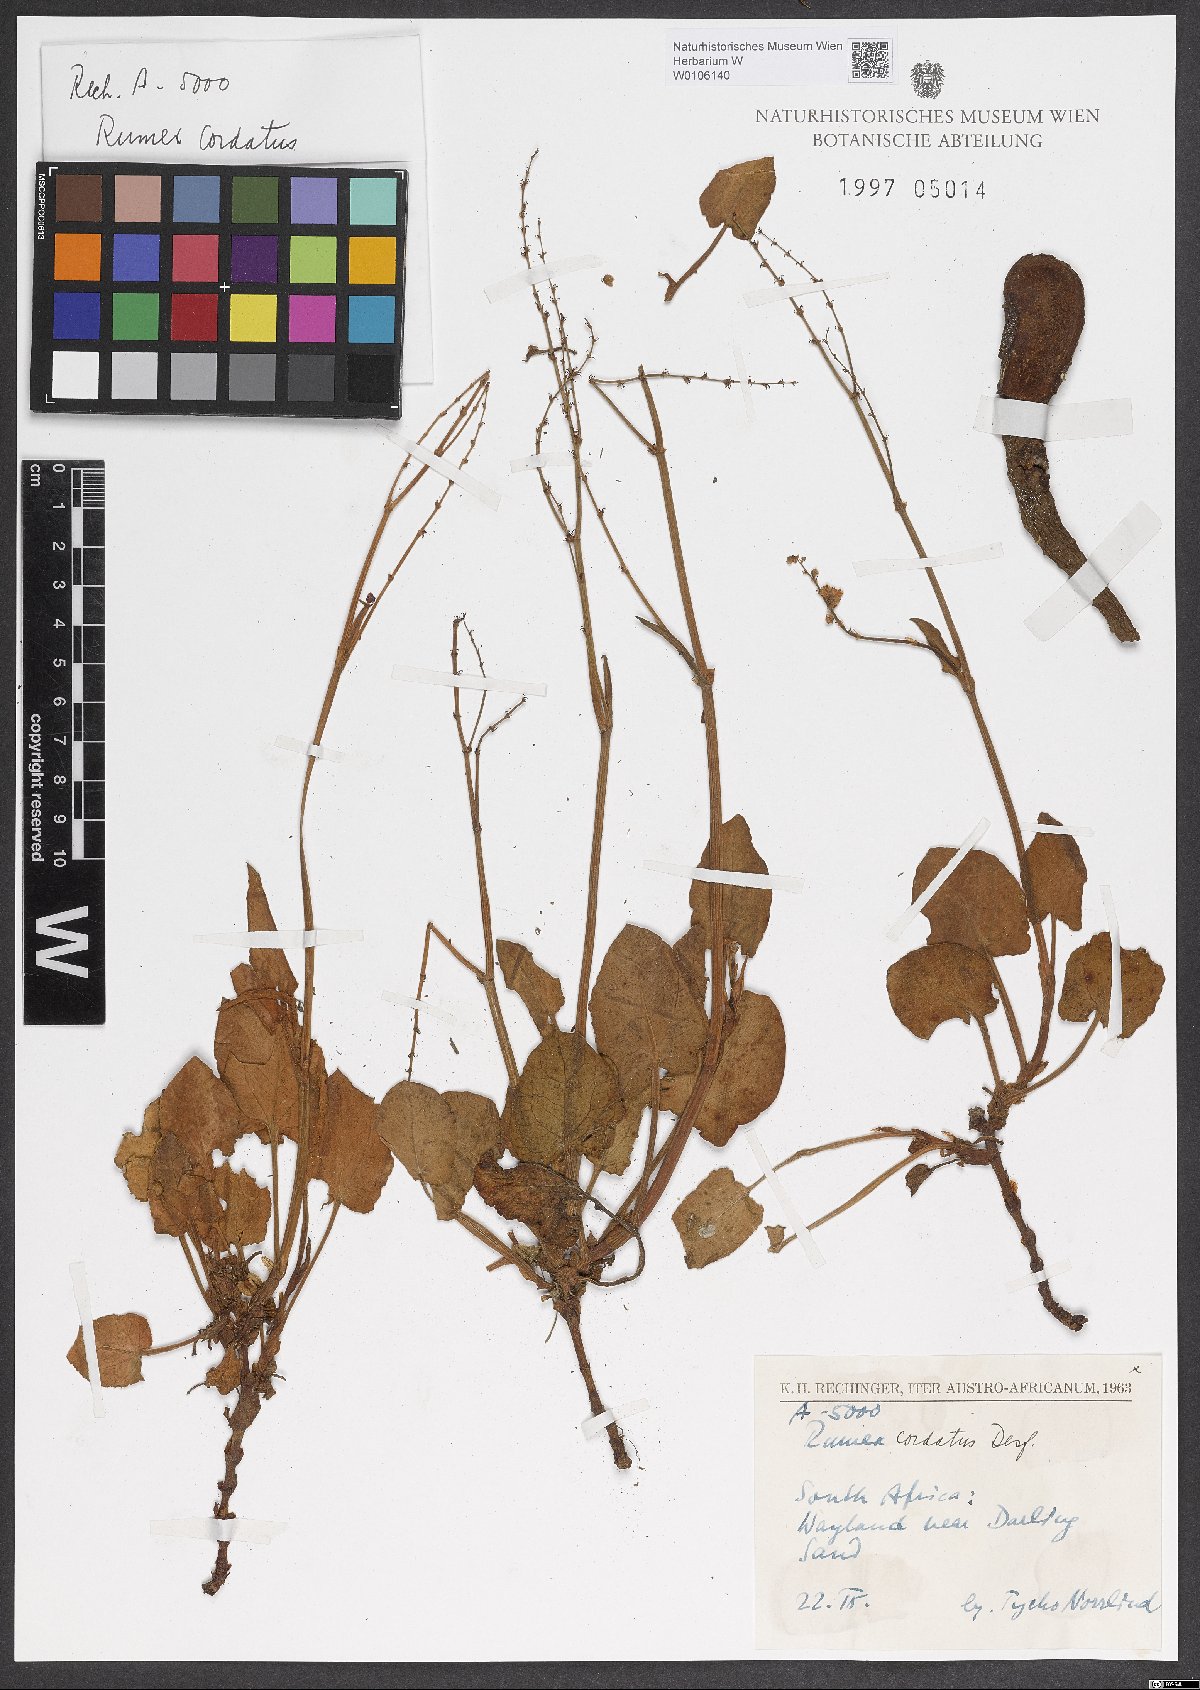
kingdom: Plantae
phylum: Tracheophyta
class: Magnoliopsida
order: Caryophyllales
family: Polygonaceae
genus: Rumex
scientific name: Rumex cordatus
